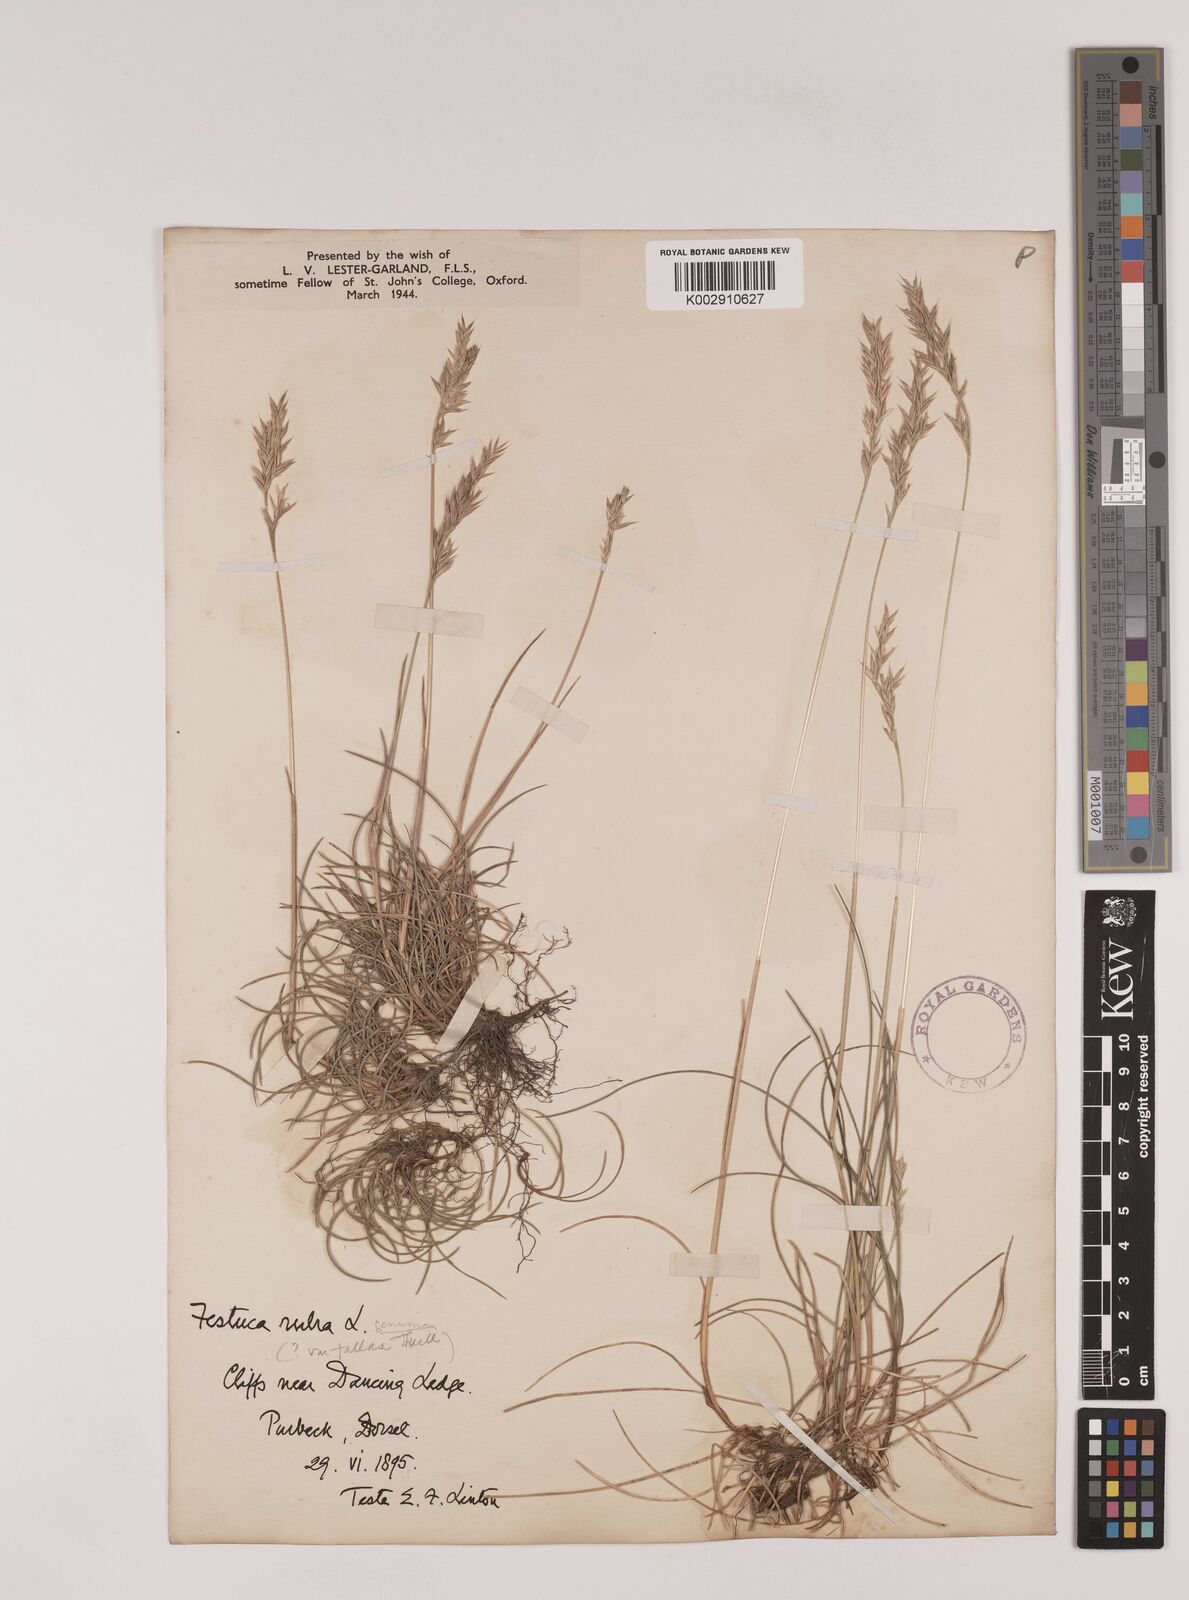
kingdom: Plantae
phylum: Tracheophyta
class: Liliopsida
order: Poales
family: Poaceae
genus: Festuca
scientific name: Festuca rubra
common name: Red fescue
